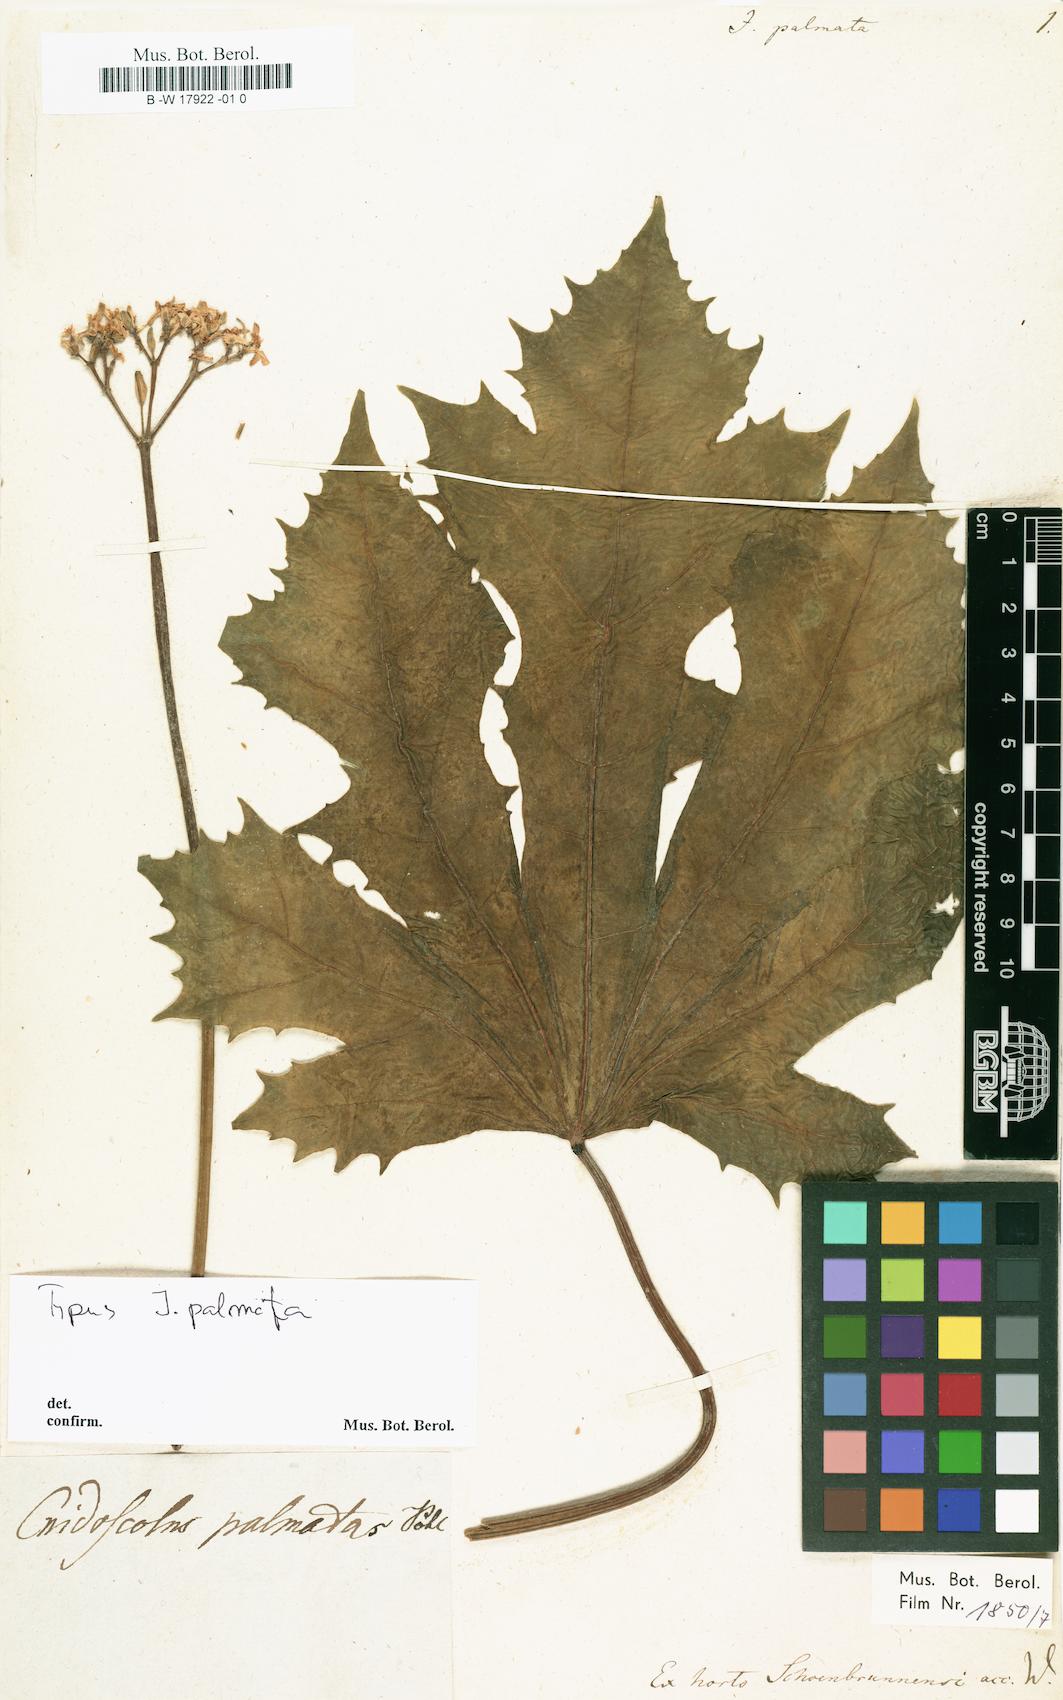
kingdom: Plantae
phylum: Tracheophyta
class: Magnoliopsida
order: Malpighiales
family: Euphorbiaceae
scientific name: Euphorbiaceae
